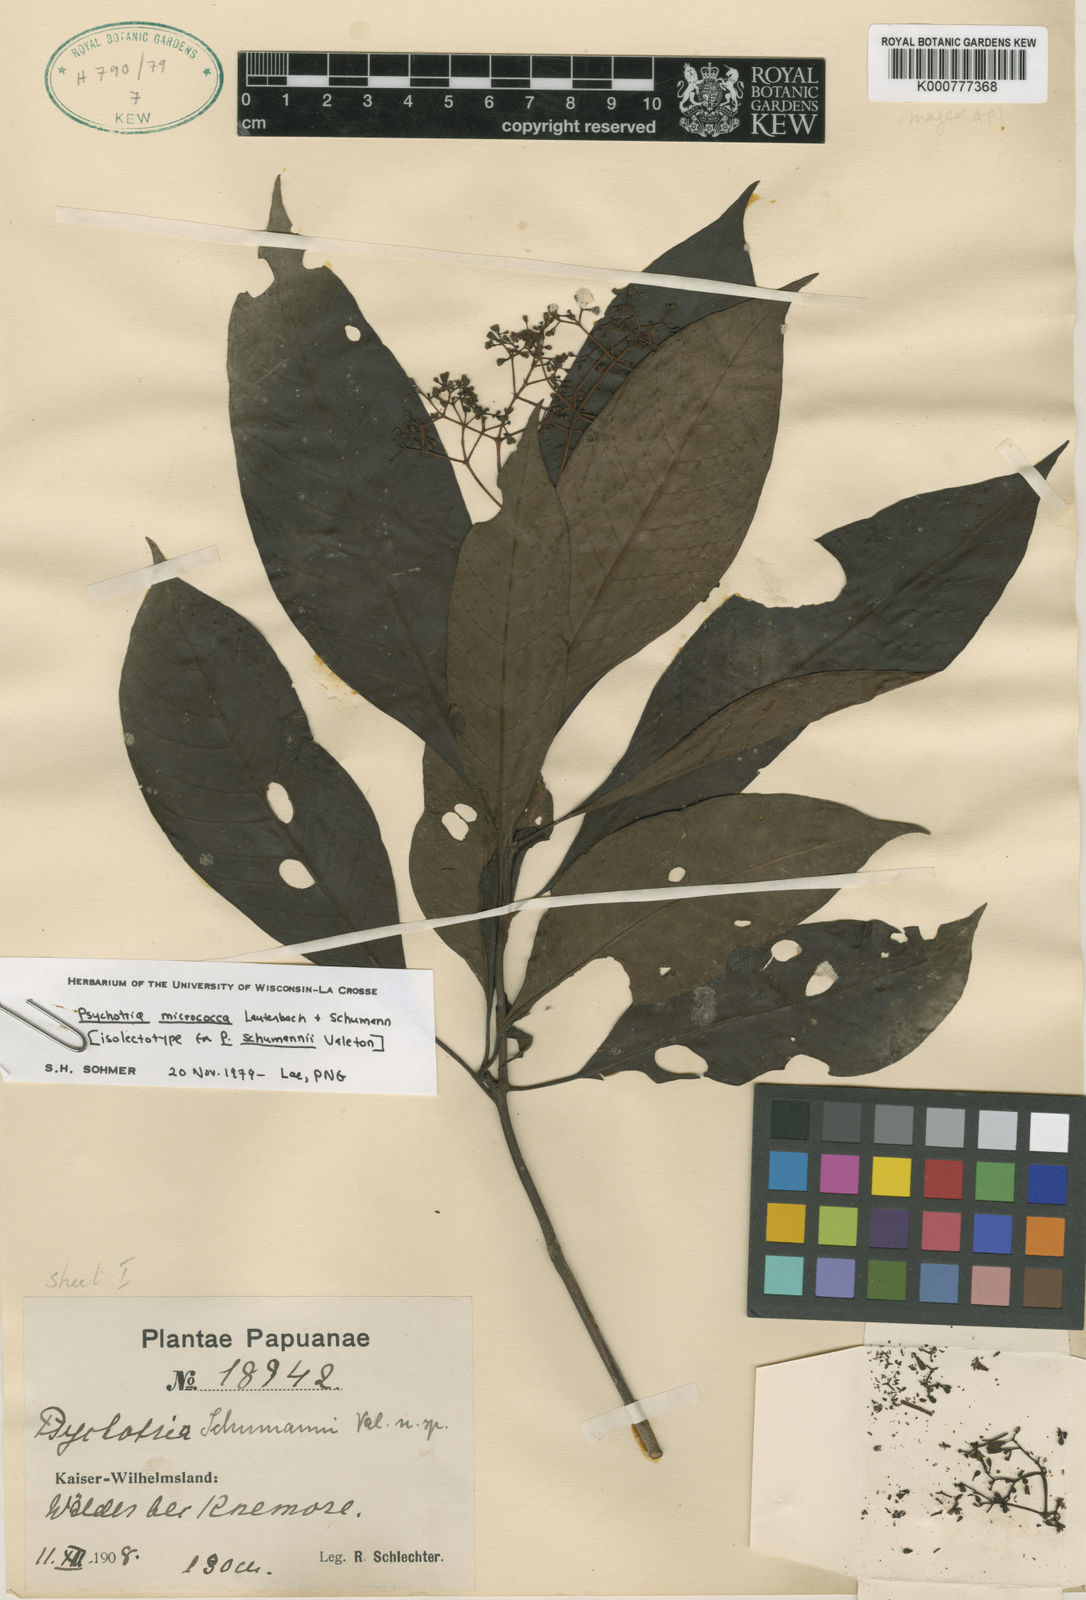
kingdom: Plantae
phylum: Tracheophyta
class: Magnoliopsida
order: Gentianales
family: Rubiaceae
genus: Psychotria
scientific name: Psychotria micrococca
